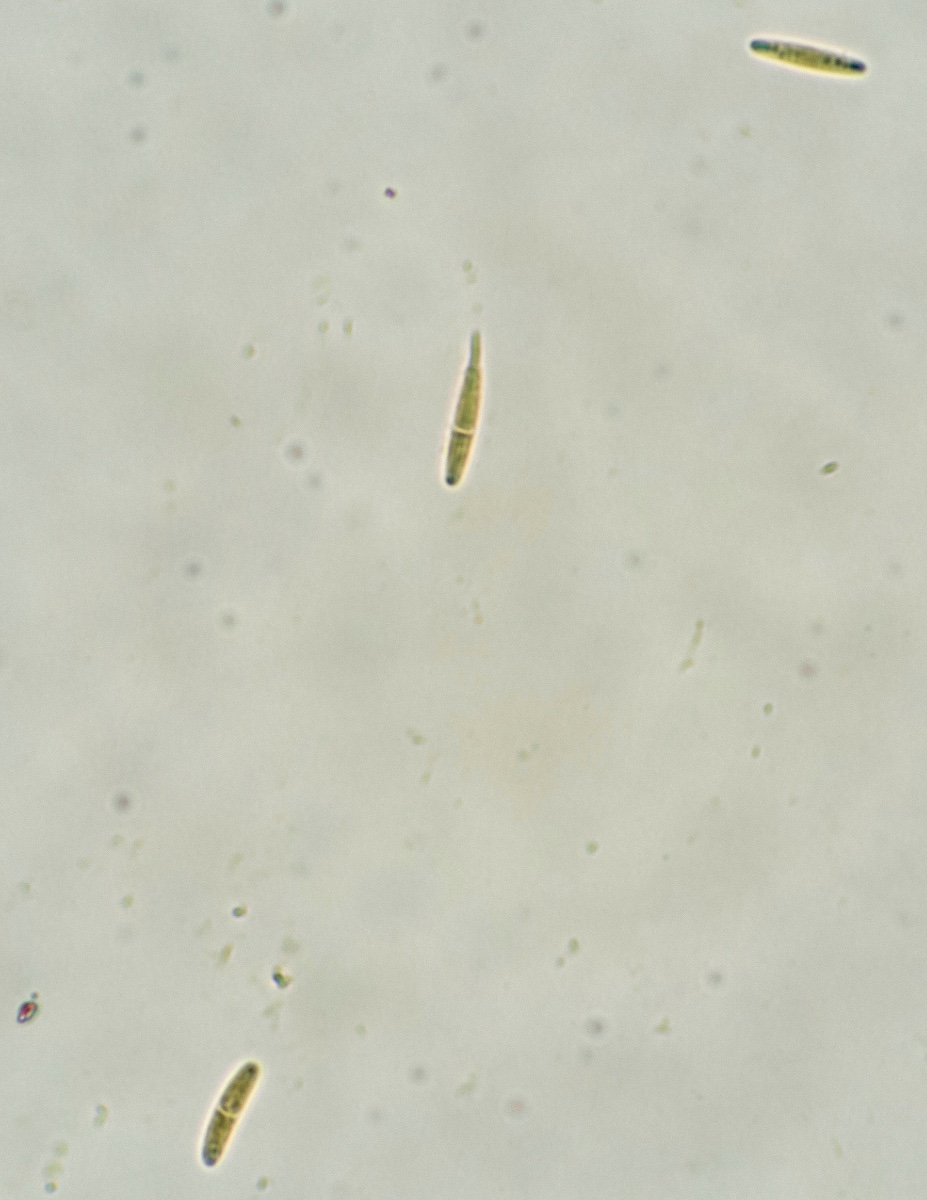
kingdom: Fungi
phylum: Ascomycota
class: Leotiomycetes
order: Helotiales
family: Solenopeziaceae
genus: Lasiobelonium
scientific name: Lasiobelonium variegatum
